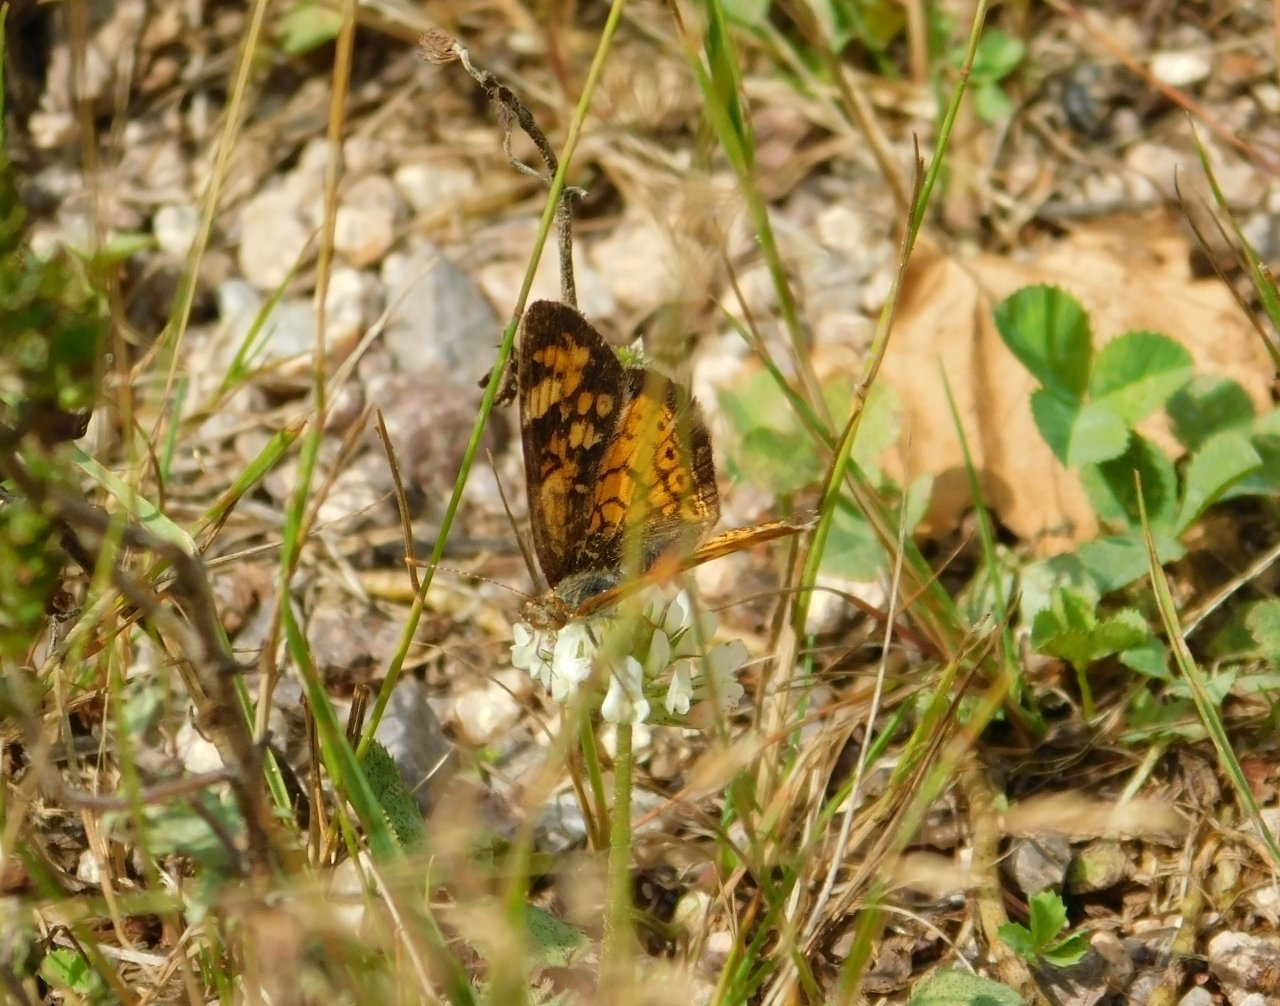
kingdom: Animalia
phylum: Arthropoda
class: Insecta
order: Lepidoptera
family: Nymphalidae
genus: Phyciodes
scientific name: Phyciodes tharos
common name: Northern Crescent
